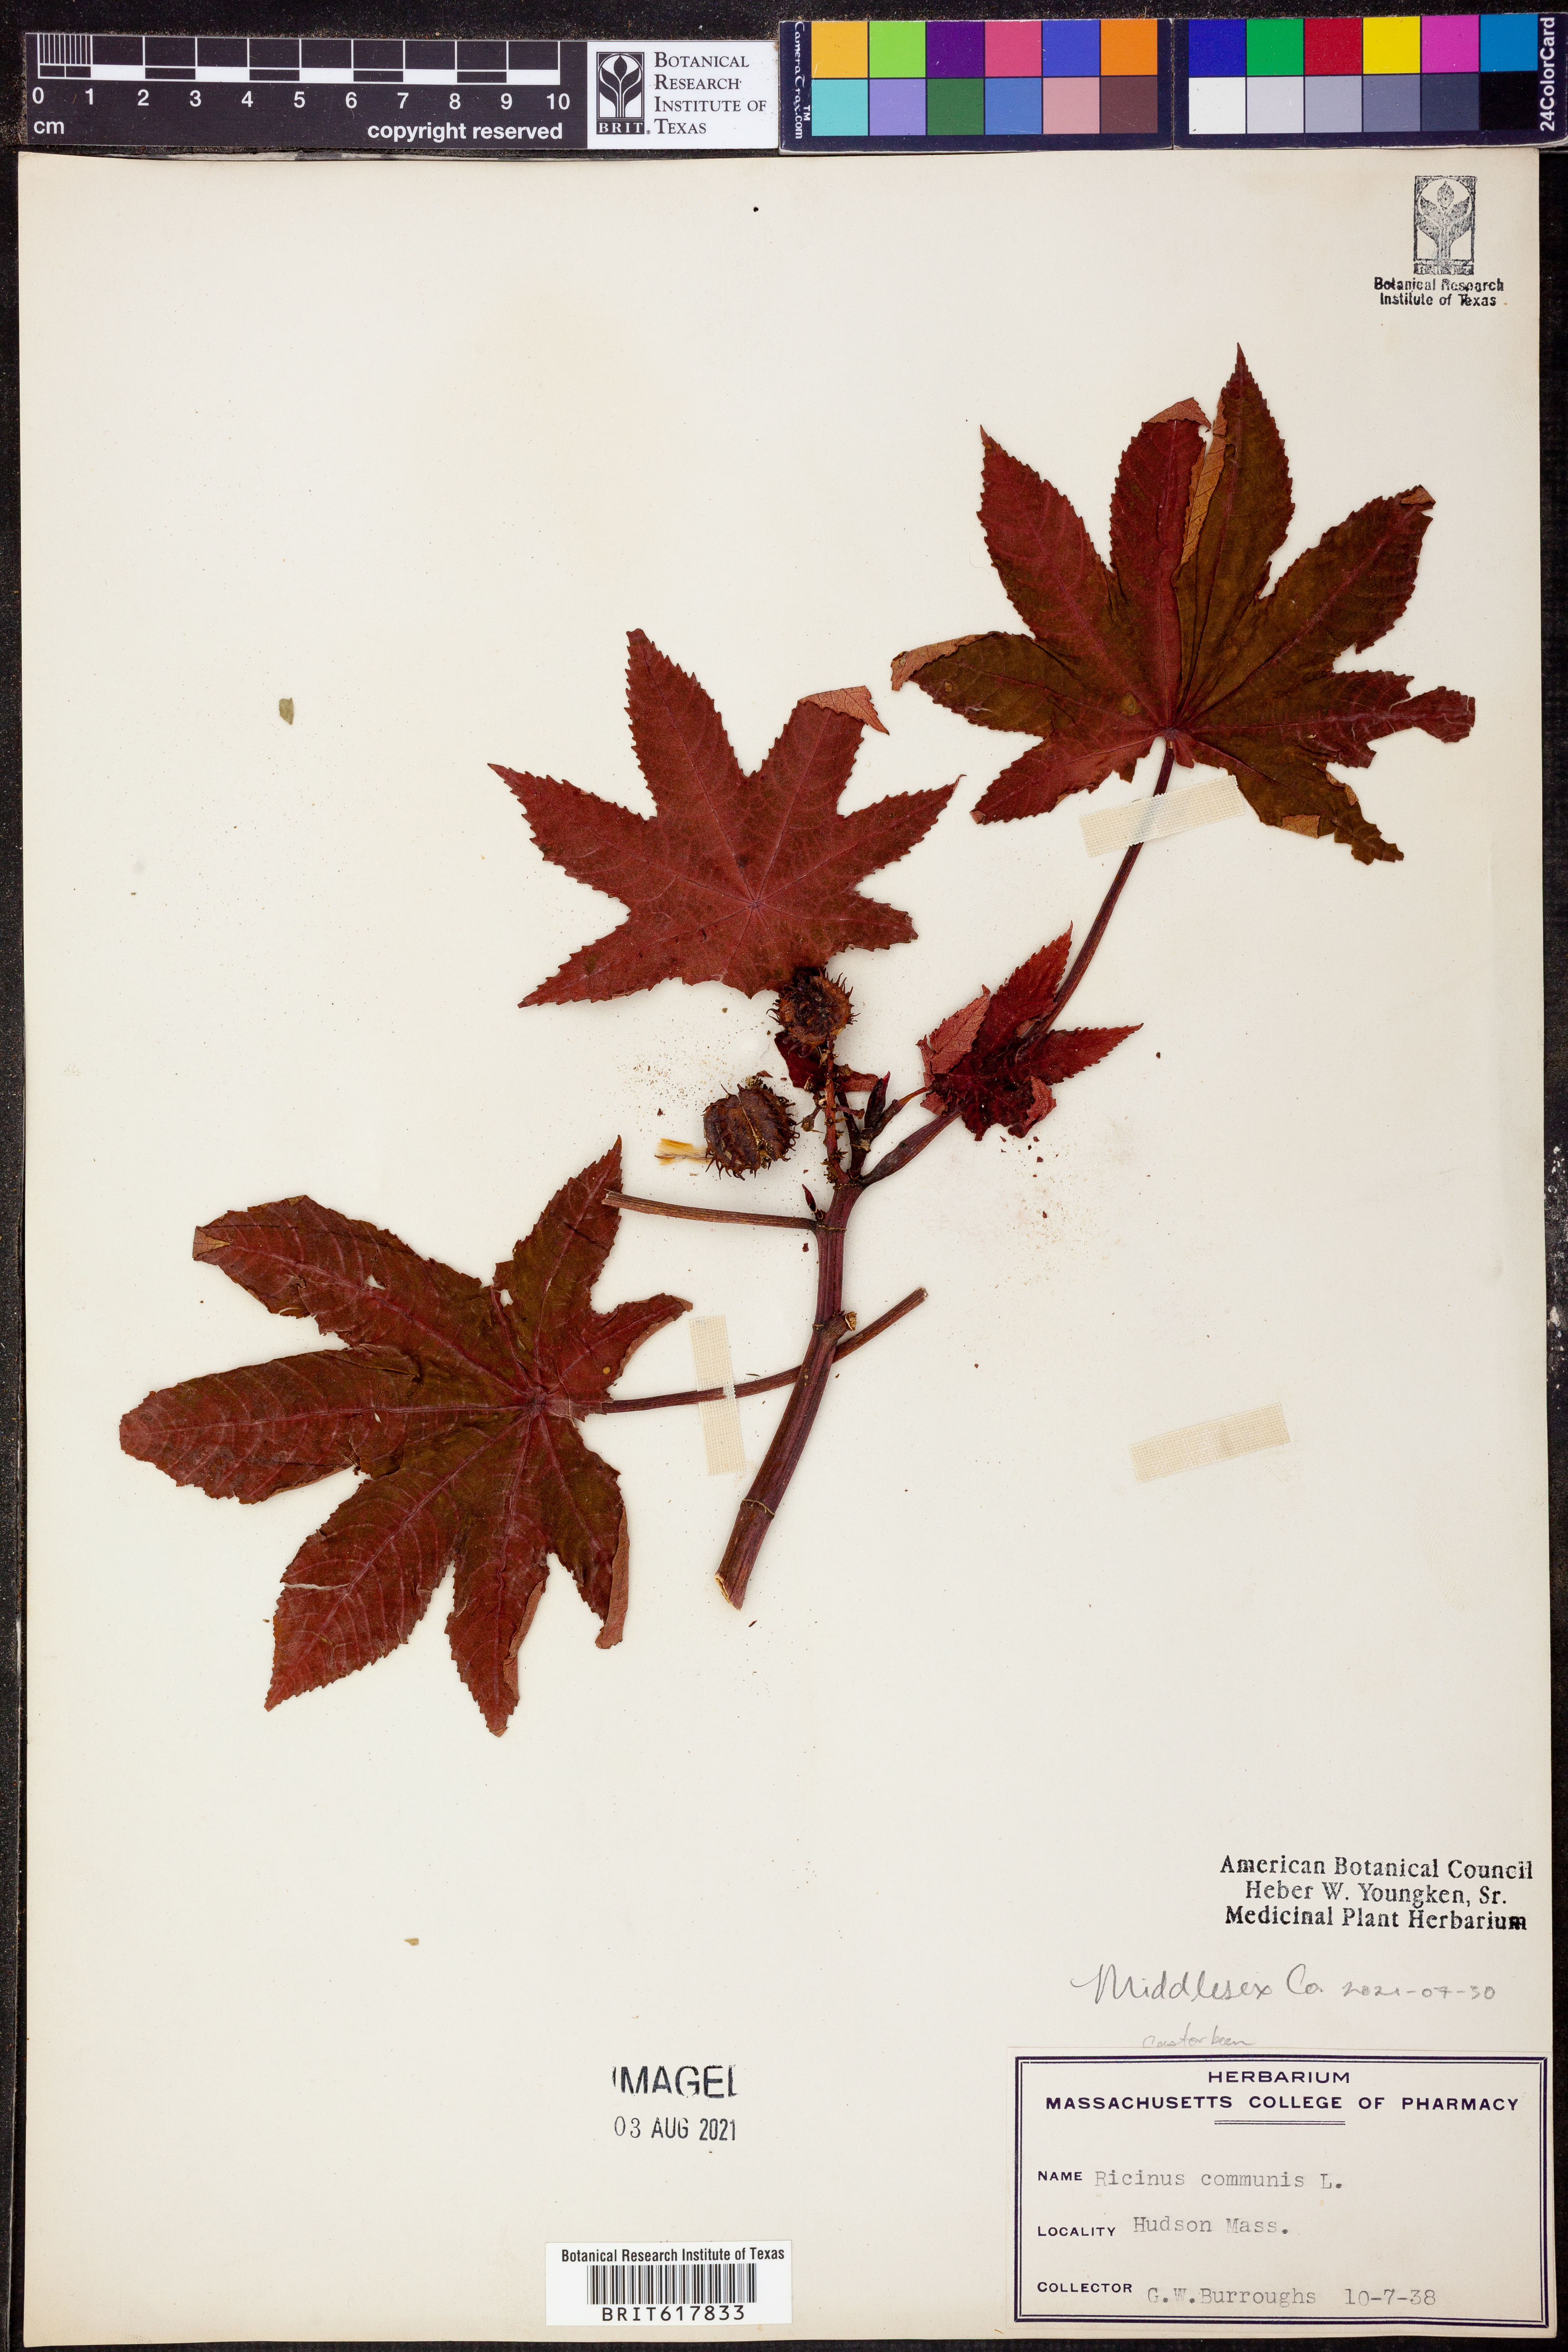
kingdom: Plantae
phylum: Tracheophyta
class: Magnoliopsida
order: Malpighiales
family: Euphorbiaceae
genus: Ricinus
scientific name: Ricinus communis
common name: Castor-oil-plant
